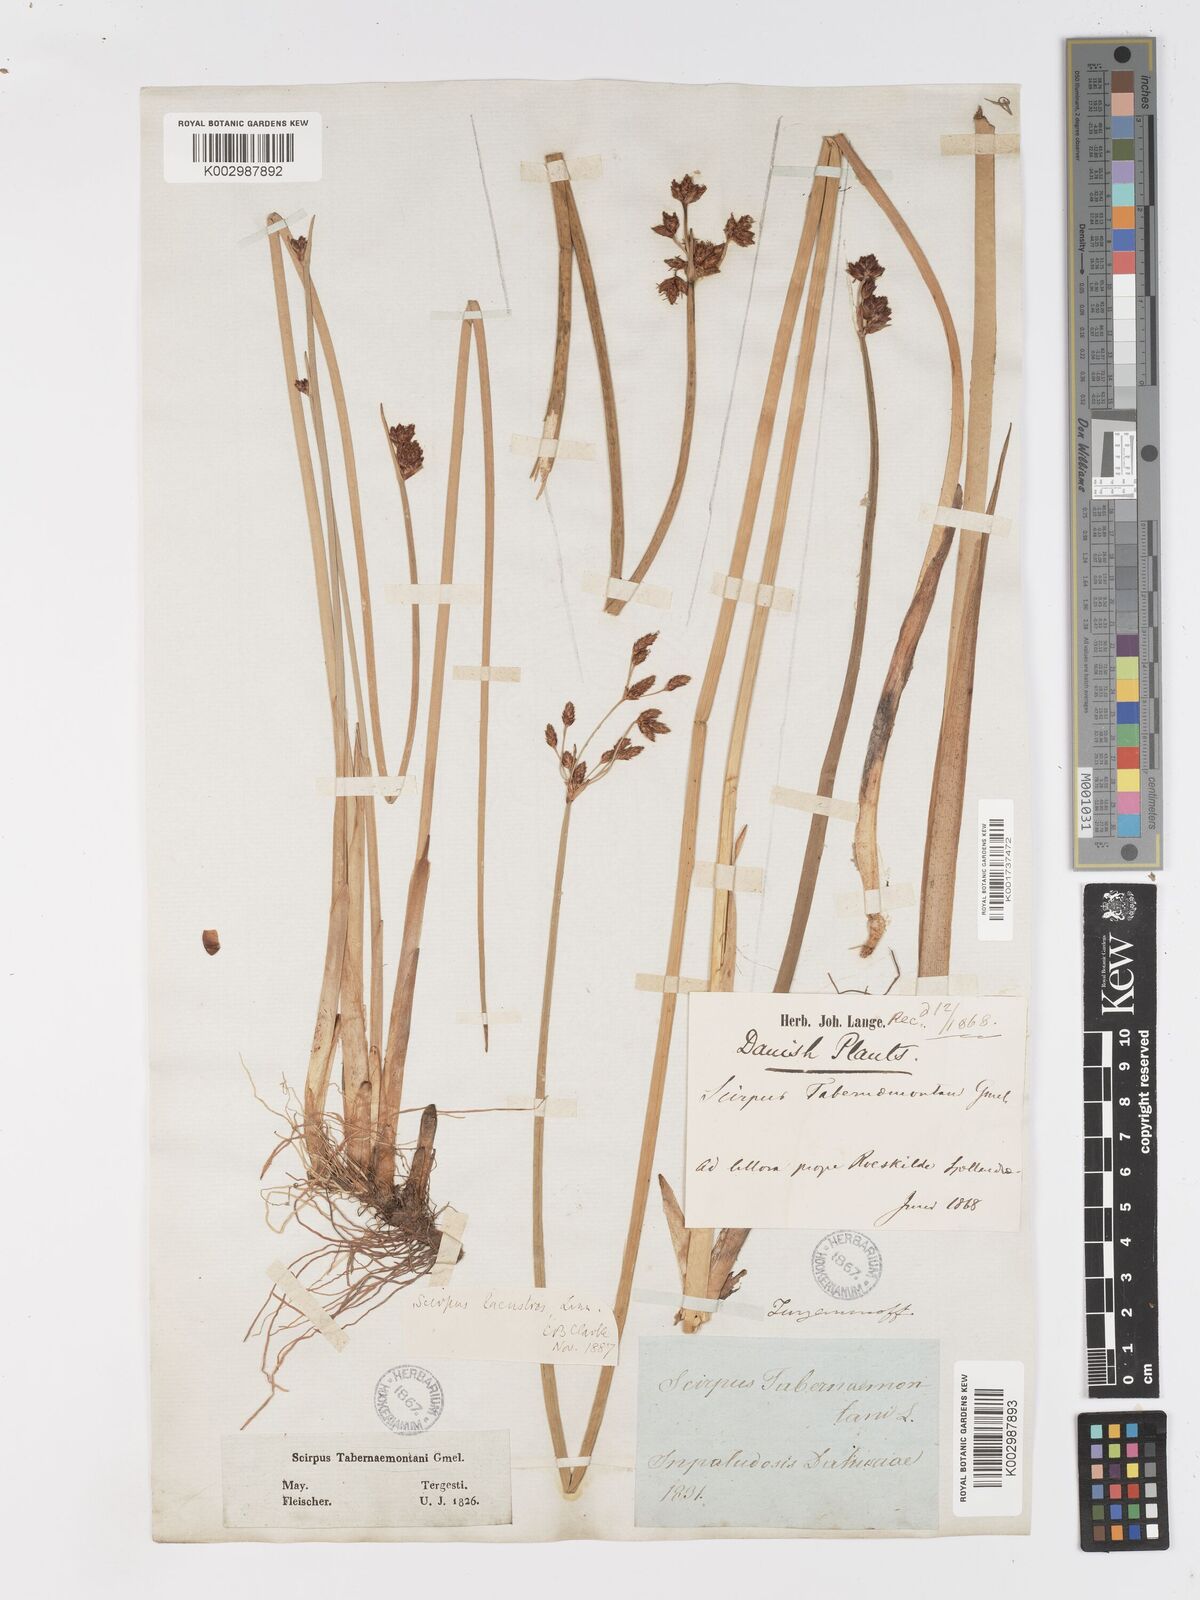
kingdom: Plantae
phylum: Tracheophyta
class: Liliopsida
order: Poales
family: Cyperaceae
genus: Schoenoplectus
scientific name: Schoenoplectus tabernaemontani
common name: Grey club-rush
